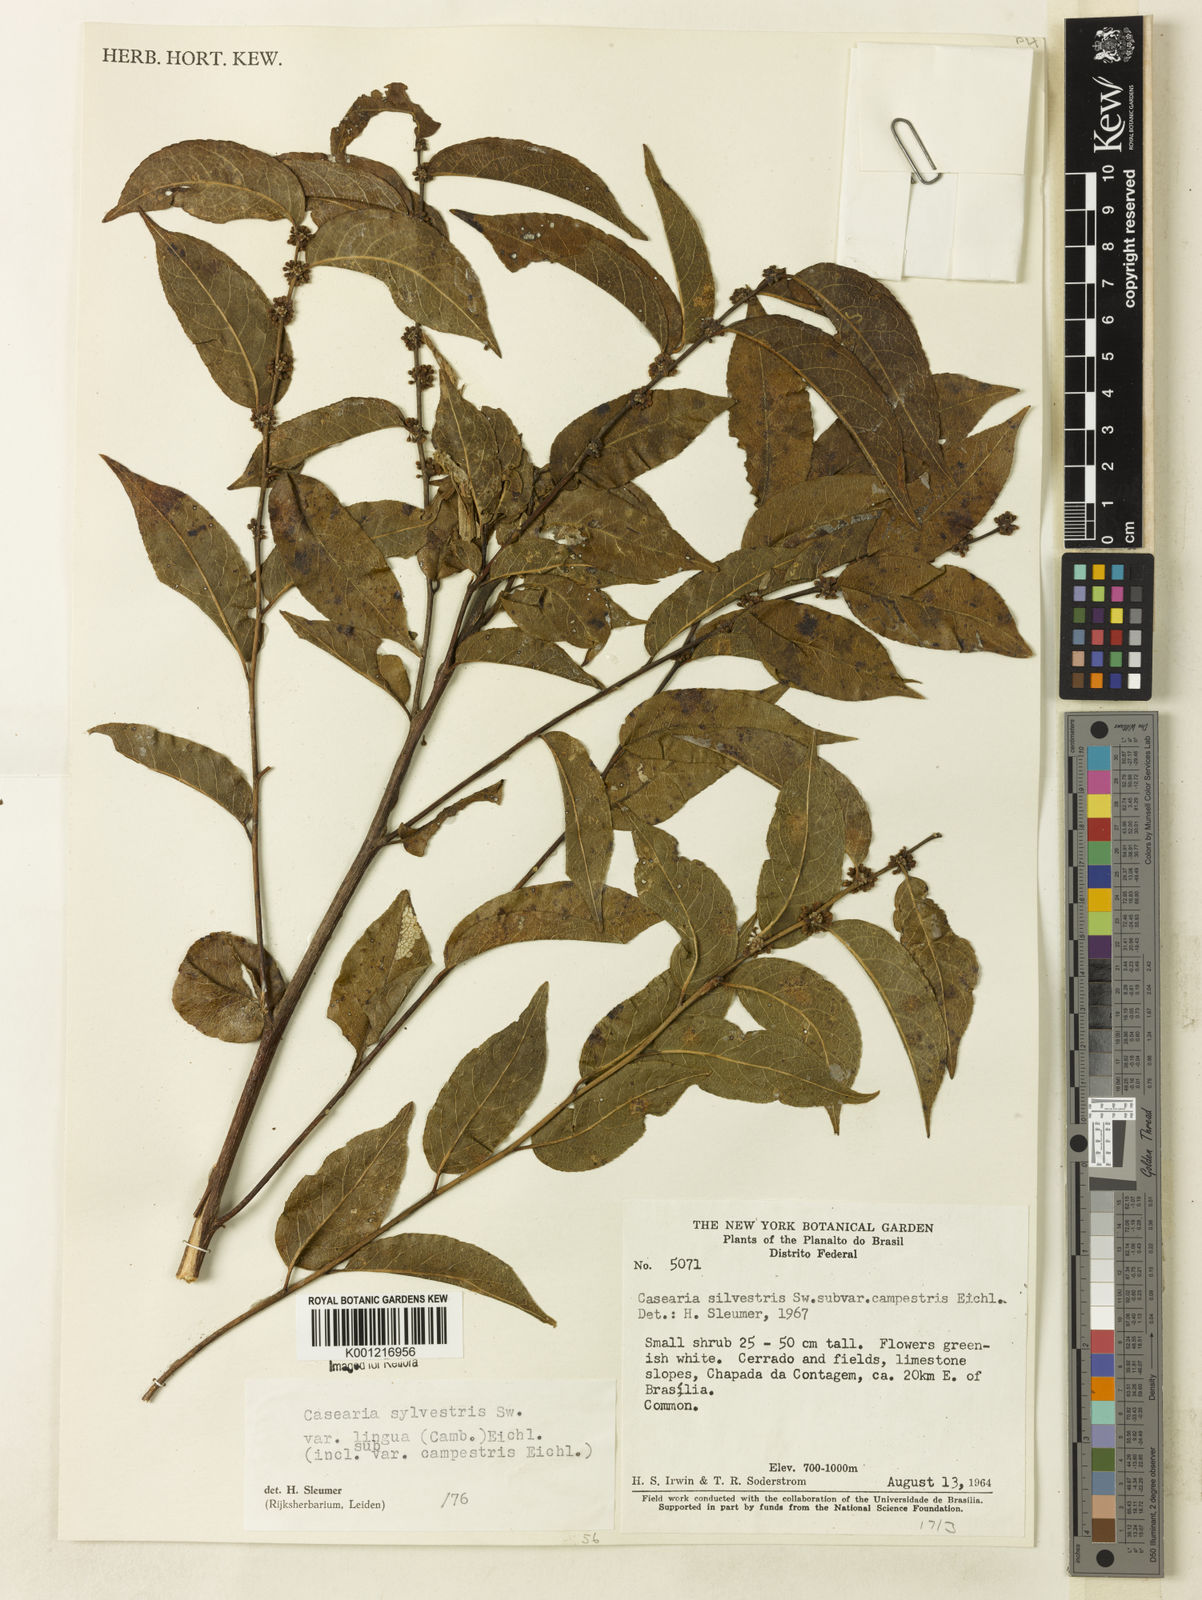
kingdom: Plantae
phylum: Tracheophyta
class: Magnoliopsida
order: Malpighiales
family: Salicaceae
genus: Casearia
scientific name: Casearia sylvestris
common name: Wild sage
